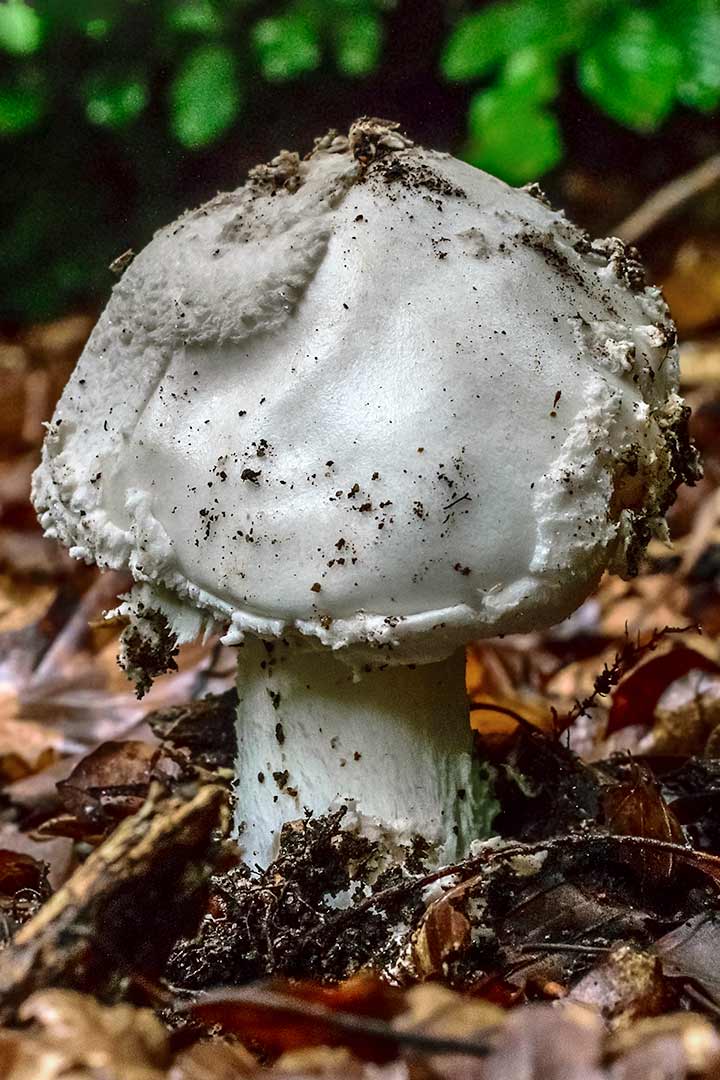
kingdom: Fungi
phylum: Basidiomycota
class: Agaricomycetes
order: Agaricales
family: Amanitaceae
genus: Amanita
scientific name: Amanita
